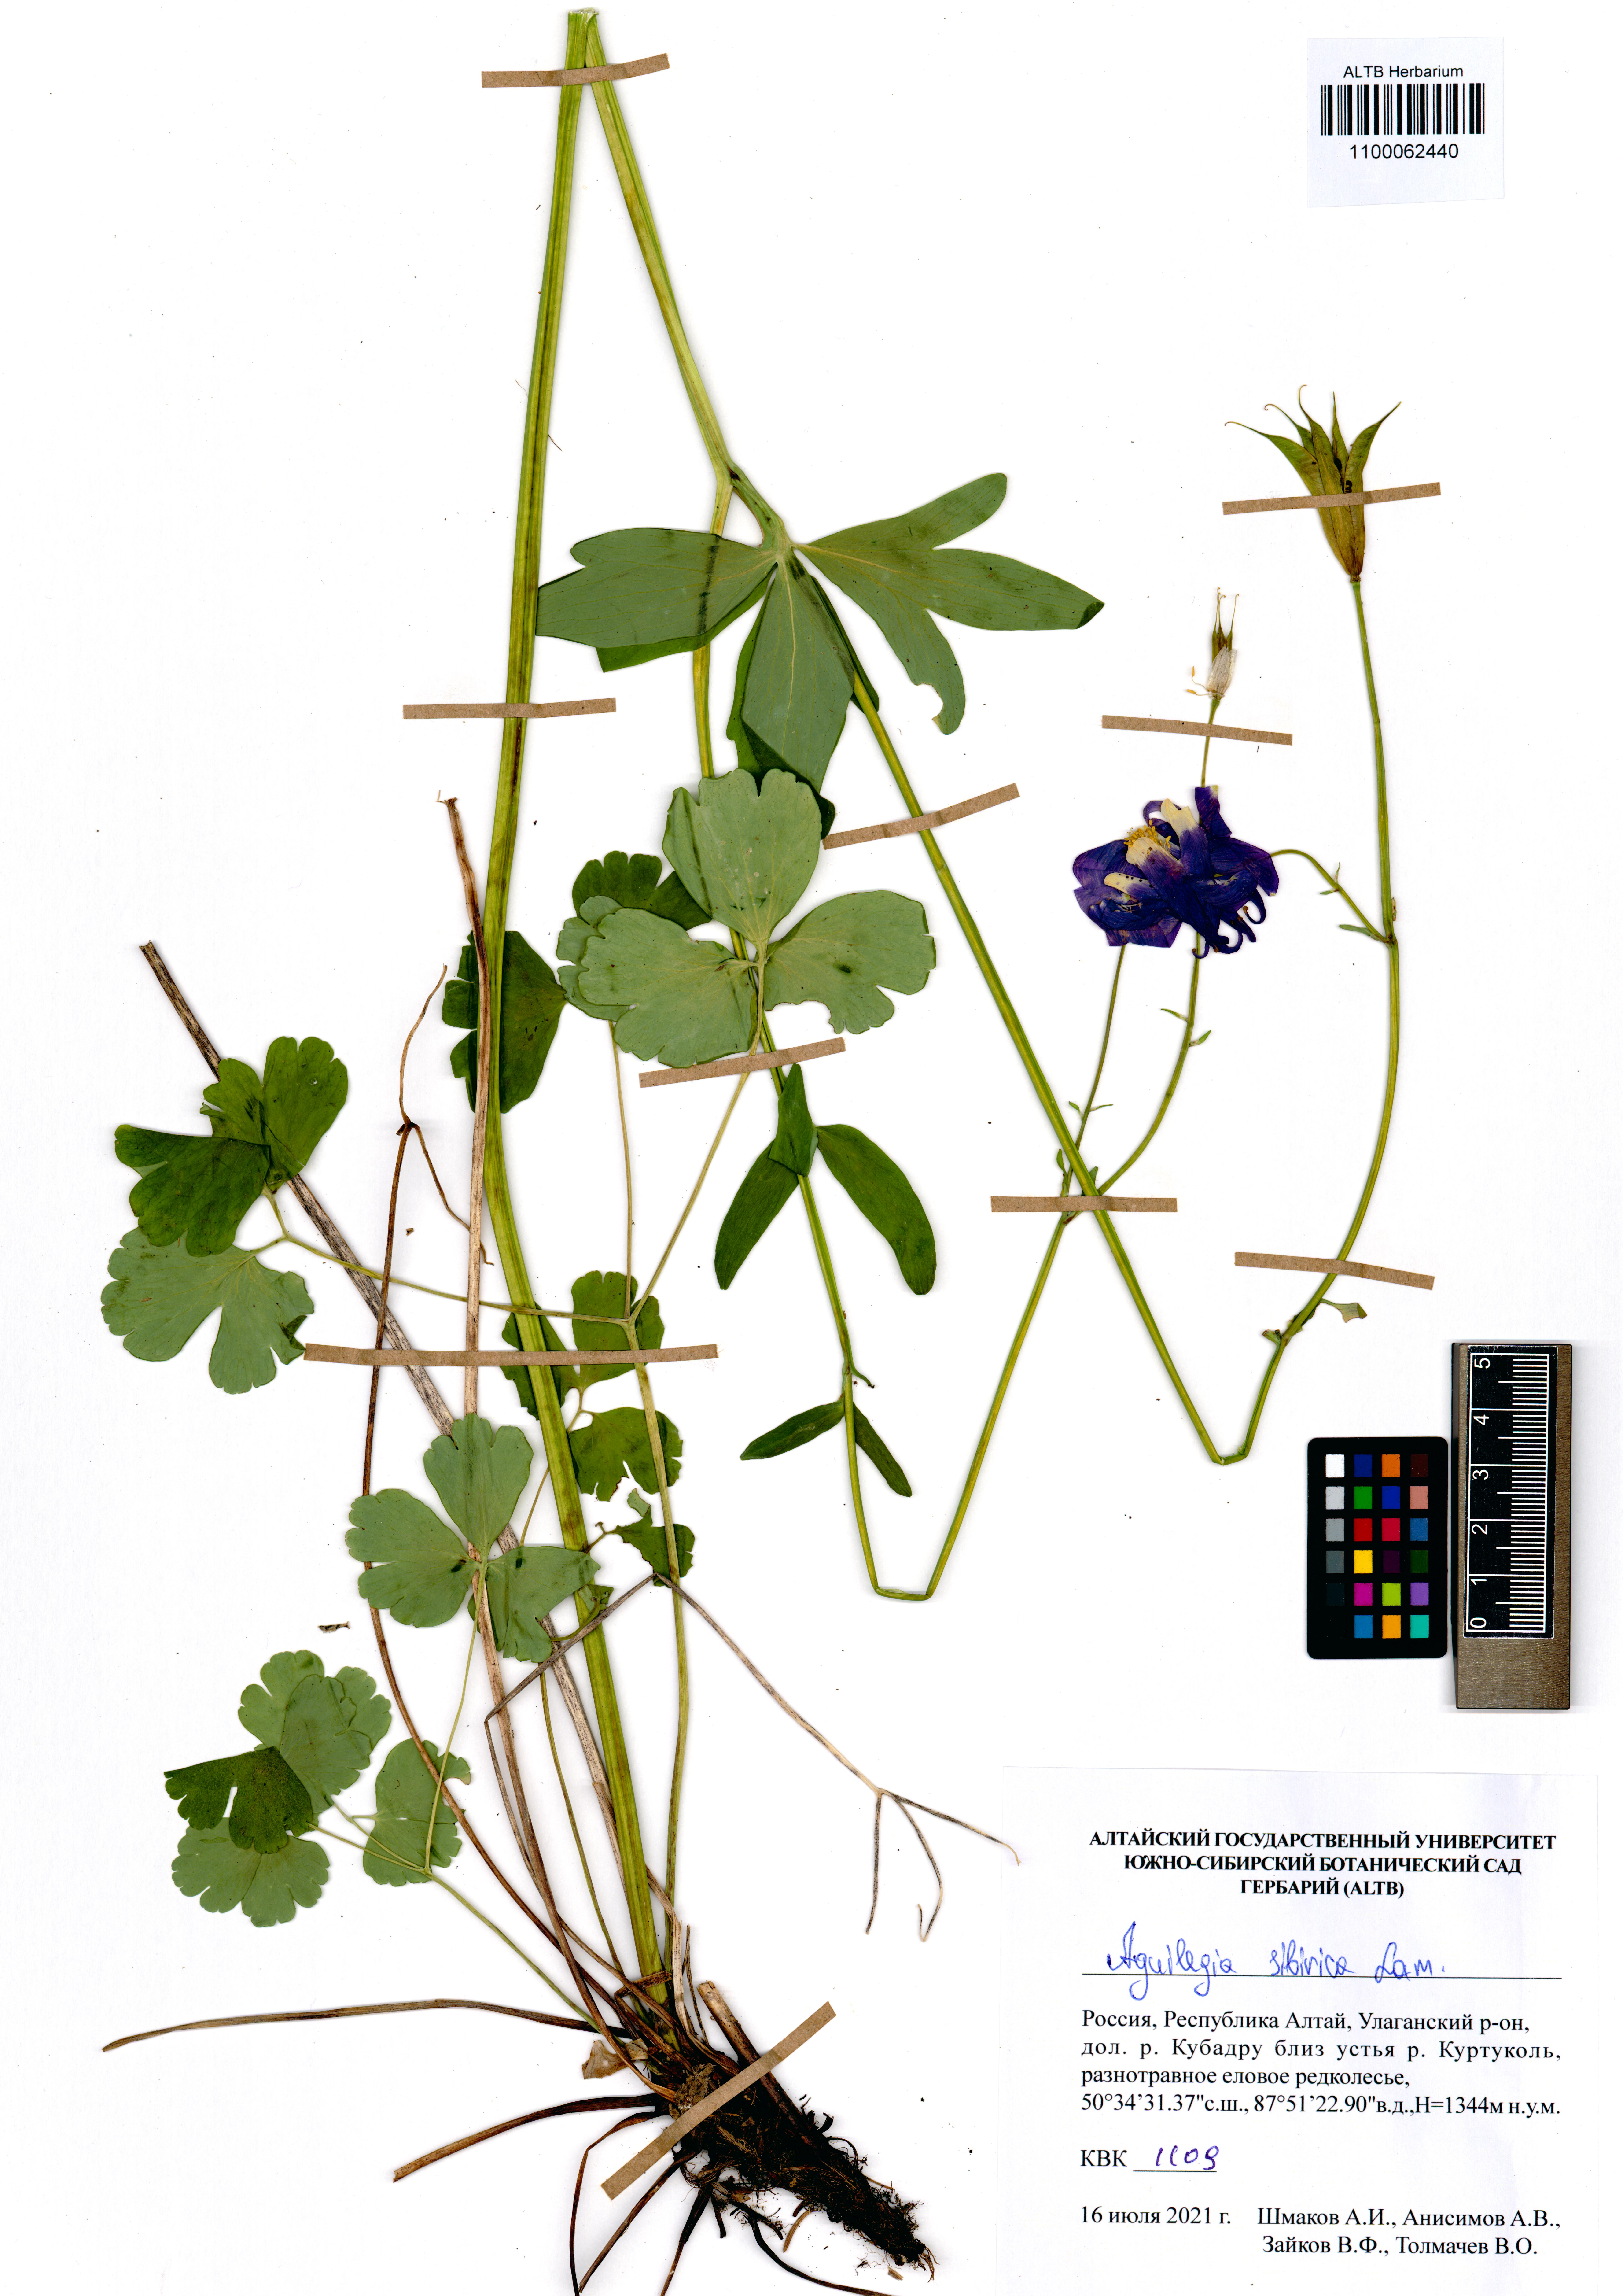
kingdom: Plantae
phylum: Tracheophyta
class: Magnoliopsida
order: Ranunculales
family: Ranunculaceae
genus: Aquilegia
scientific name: Aquilegia sibirica
